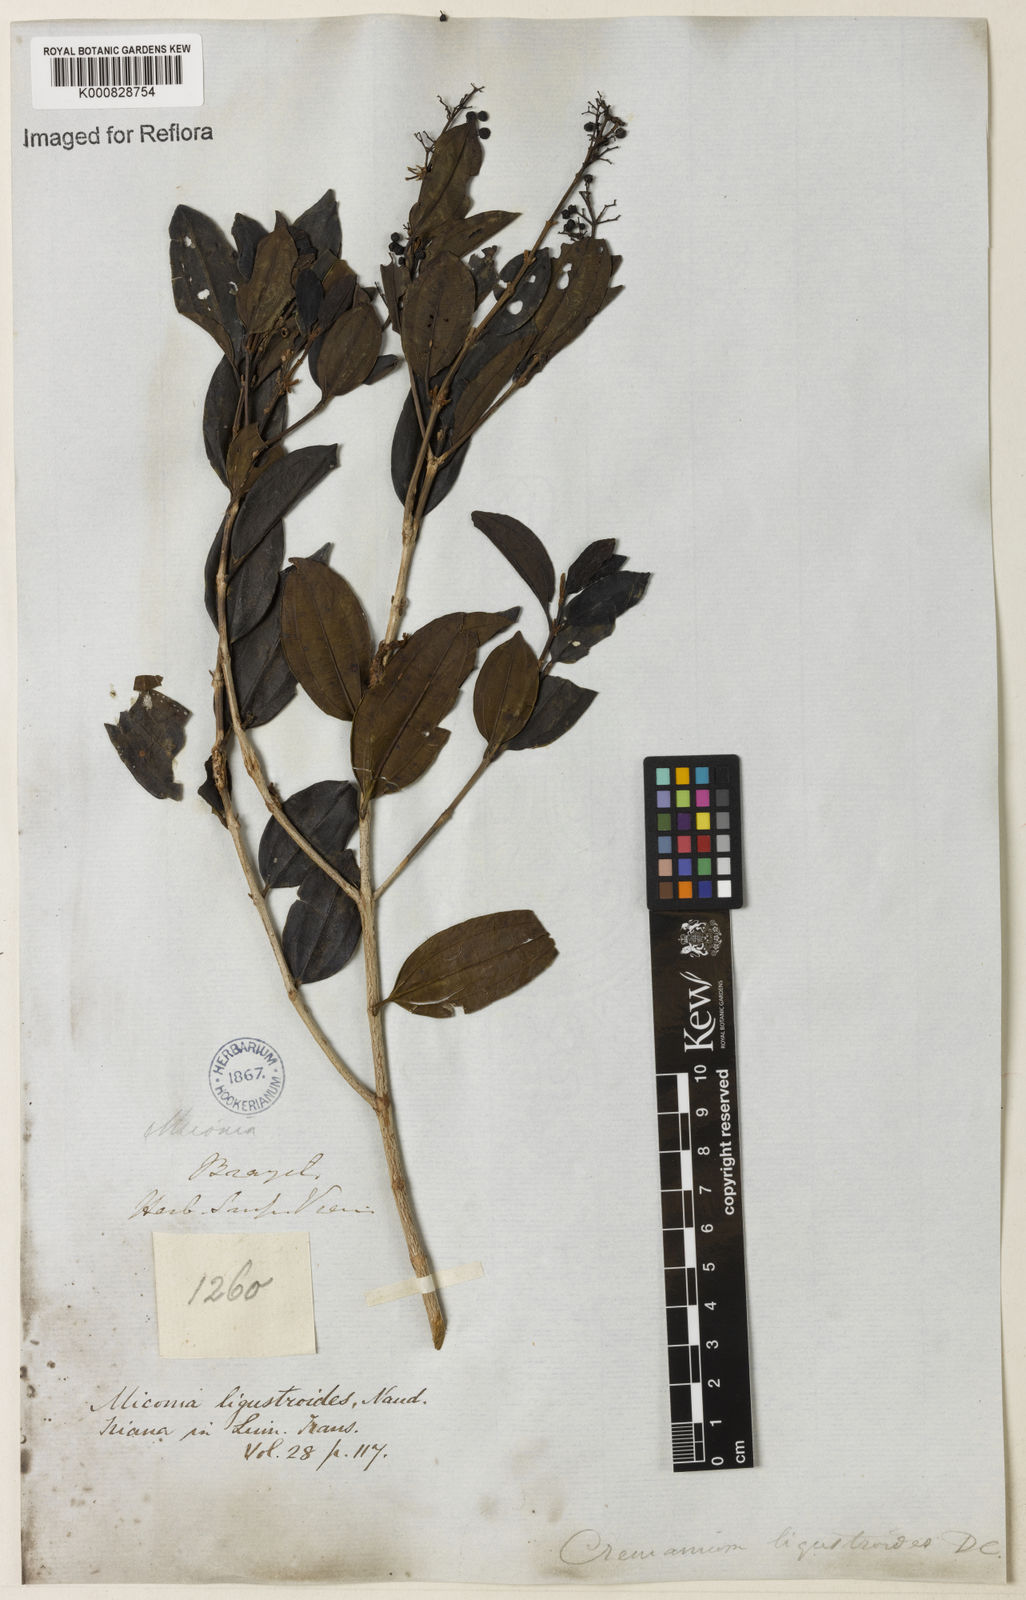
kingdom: Plantae
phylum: Tracheophyta
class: Magnoliopsida
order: Myrtales
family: Melastomataceae
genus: Miconia
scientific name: Miconia ligustroides
